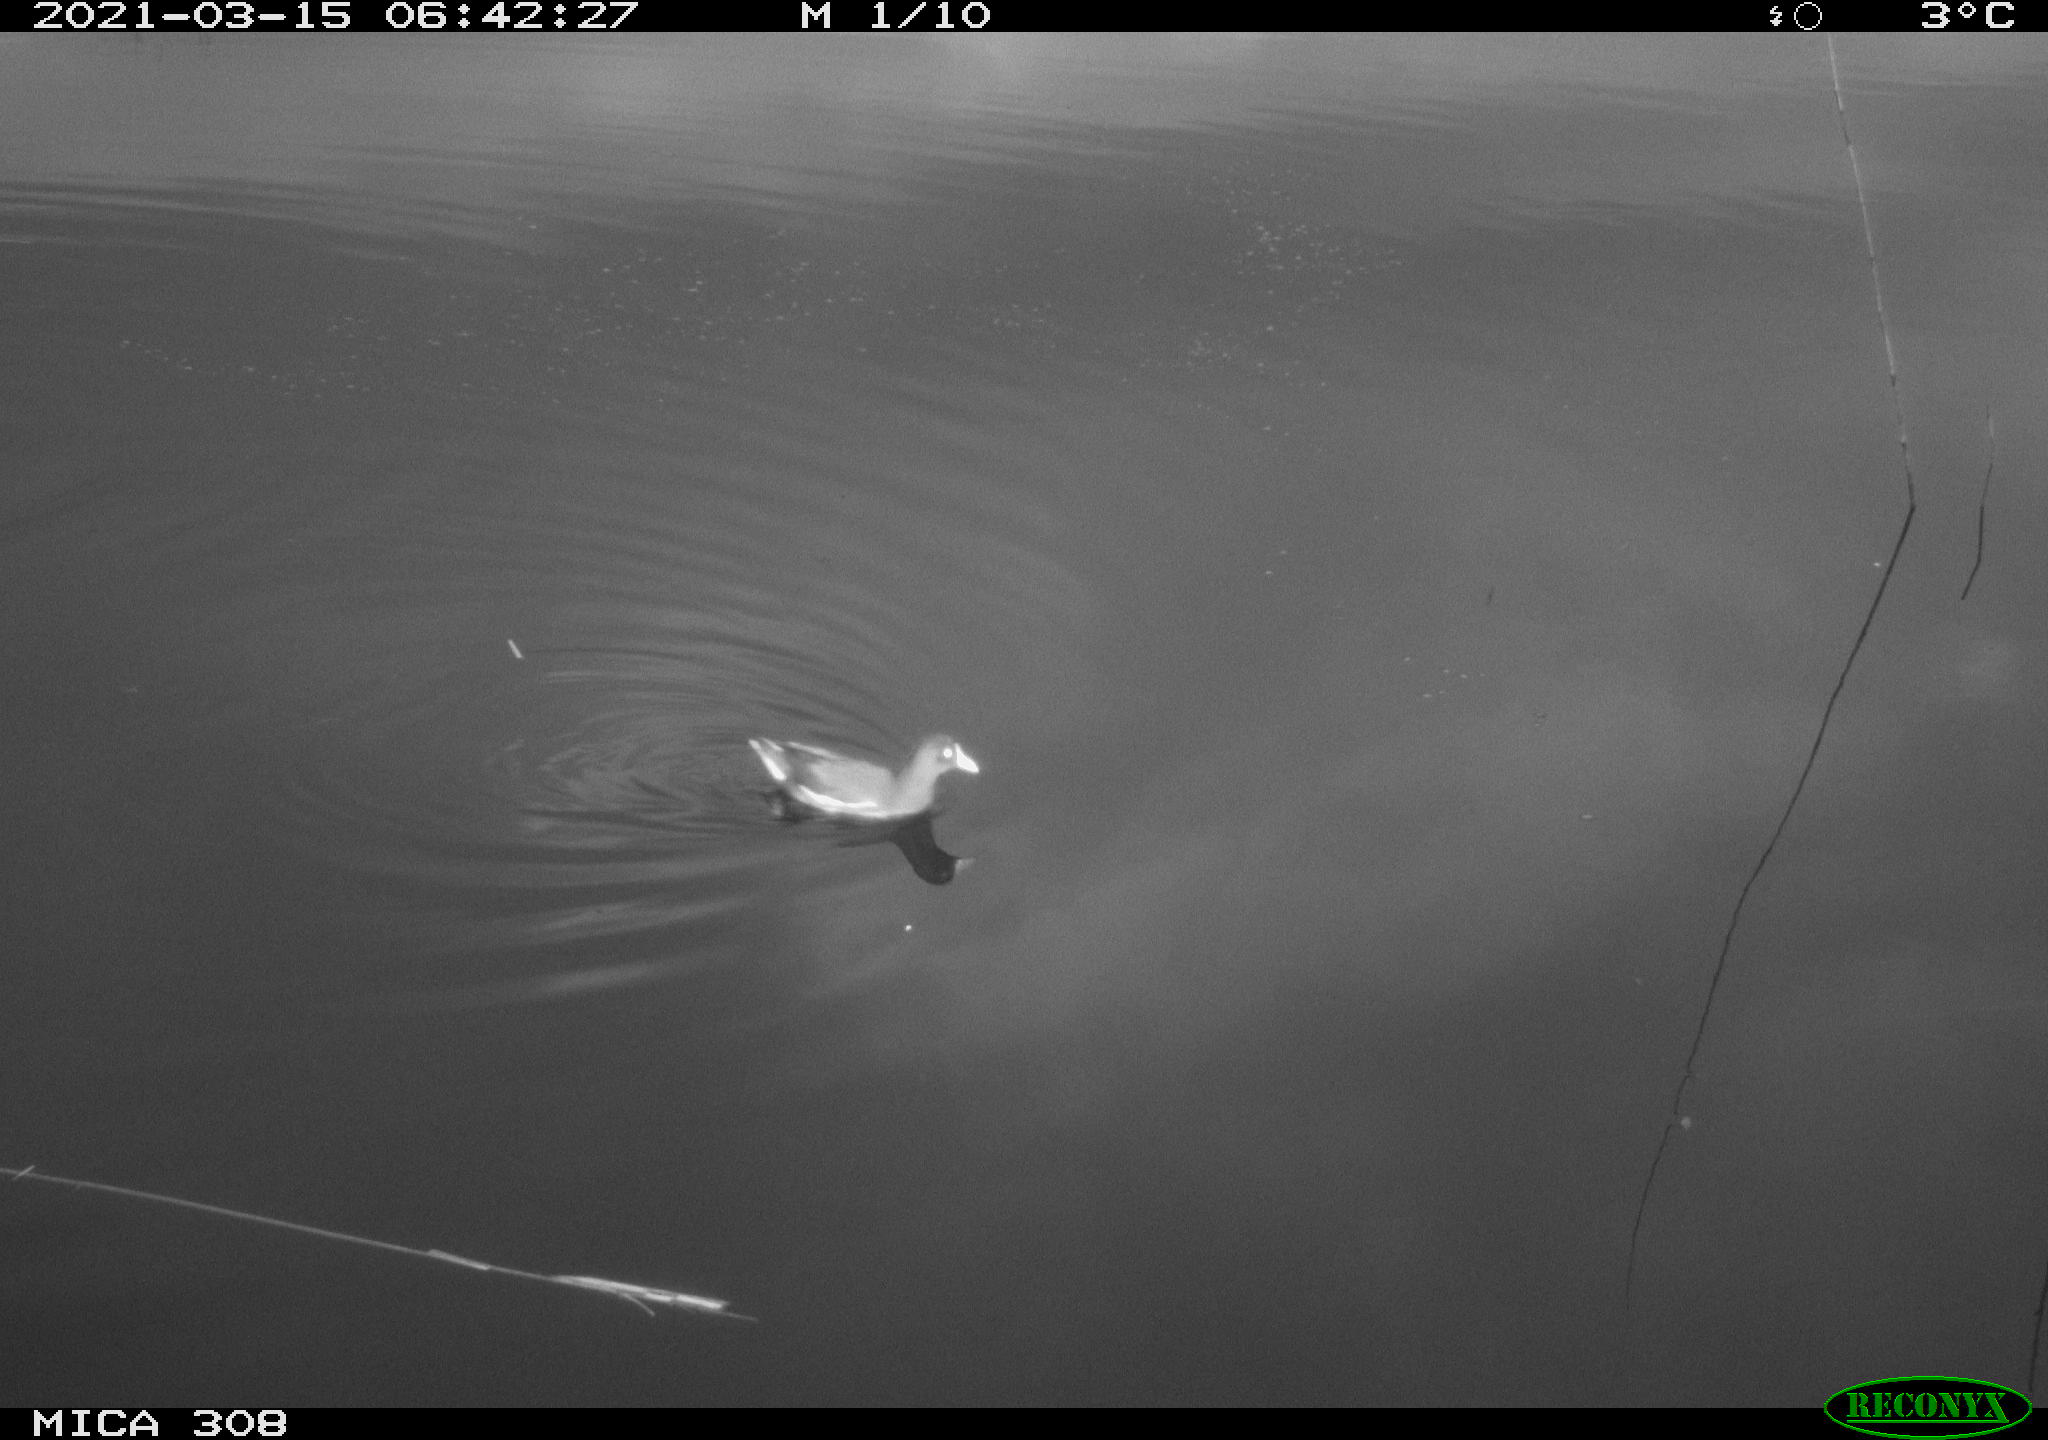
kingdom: Animalia
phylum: Chordata
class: Aves
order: Gruiformes
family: Rallidae
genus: Gallinula
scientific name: Gallinula chloropus
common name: Common moorhen
